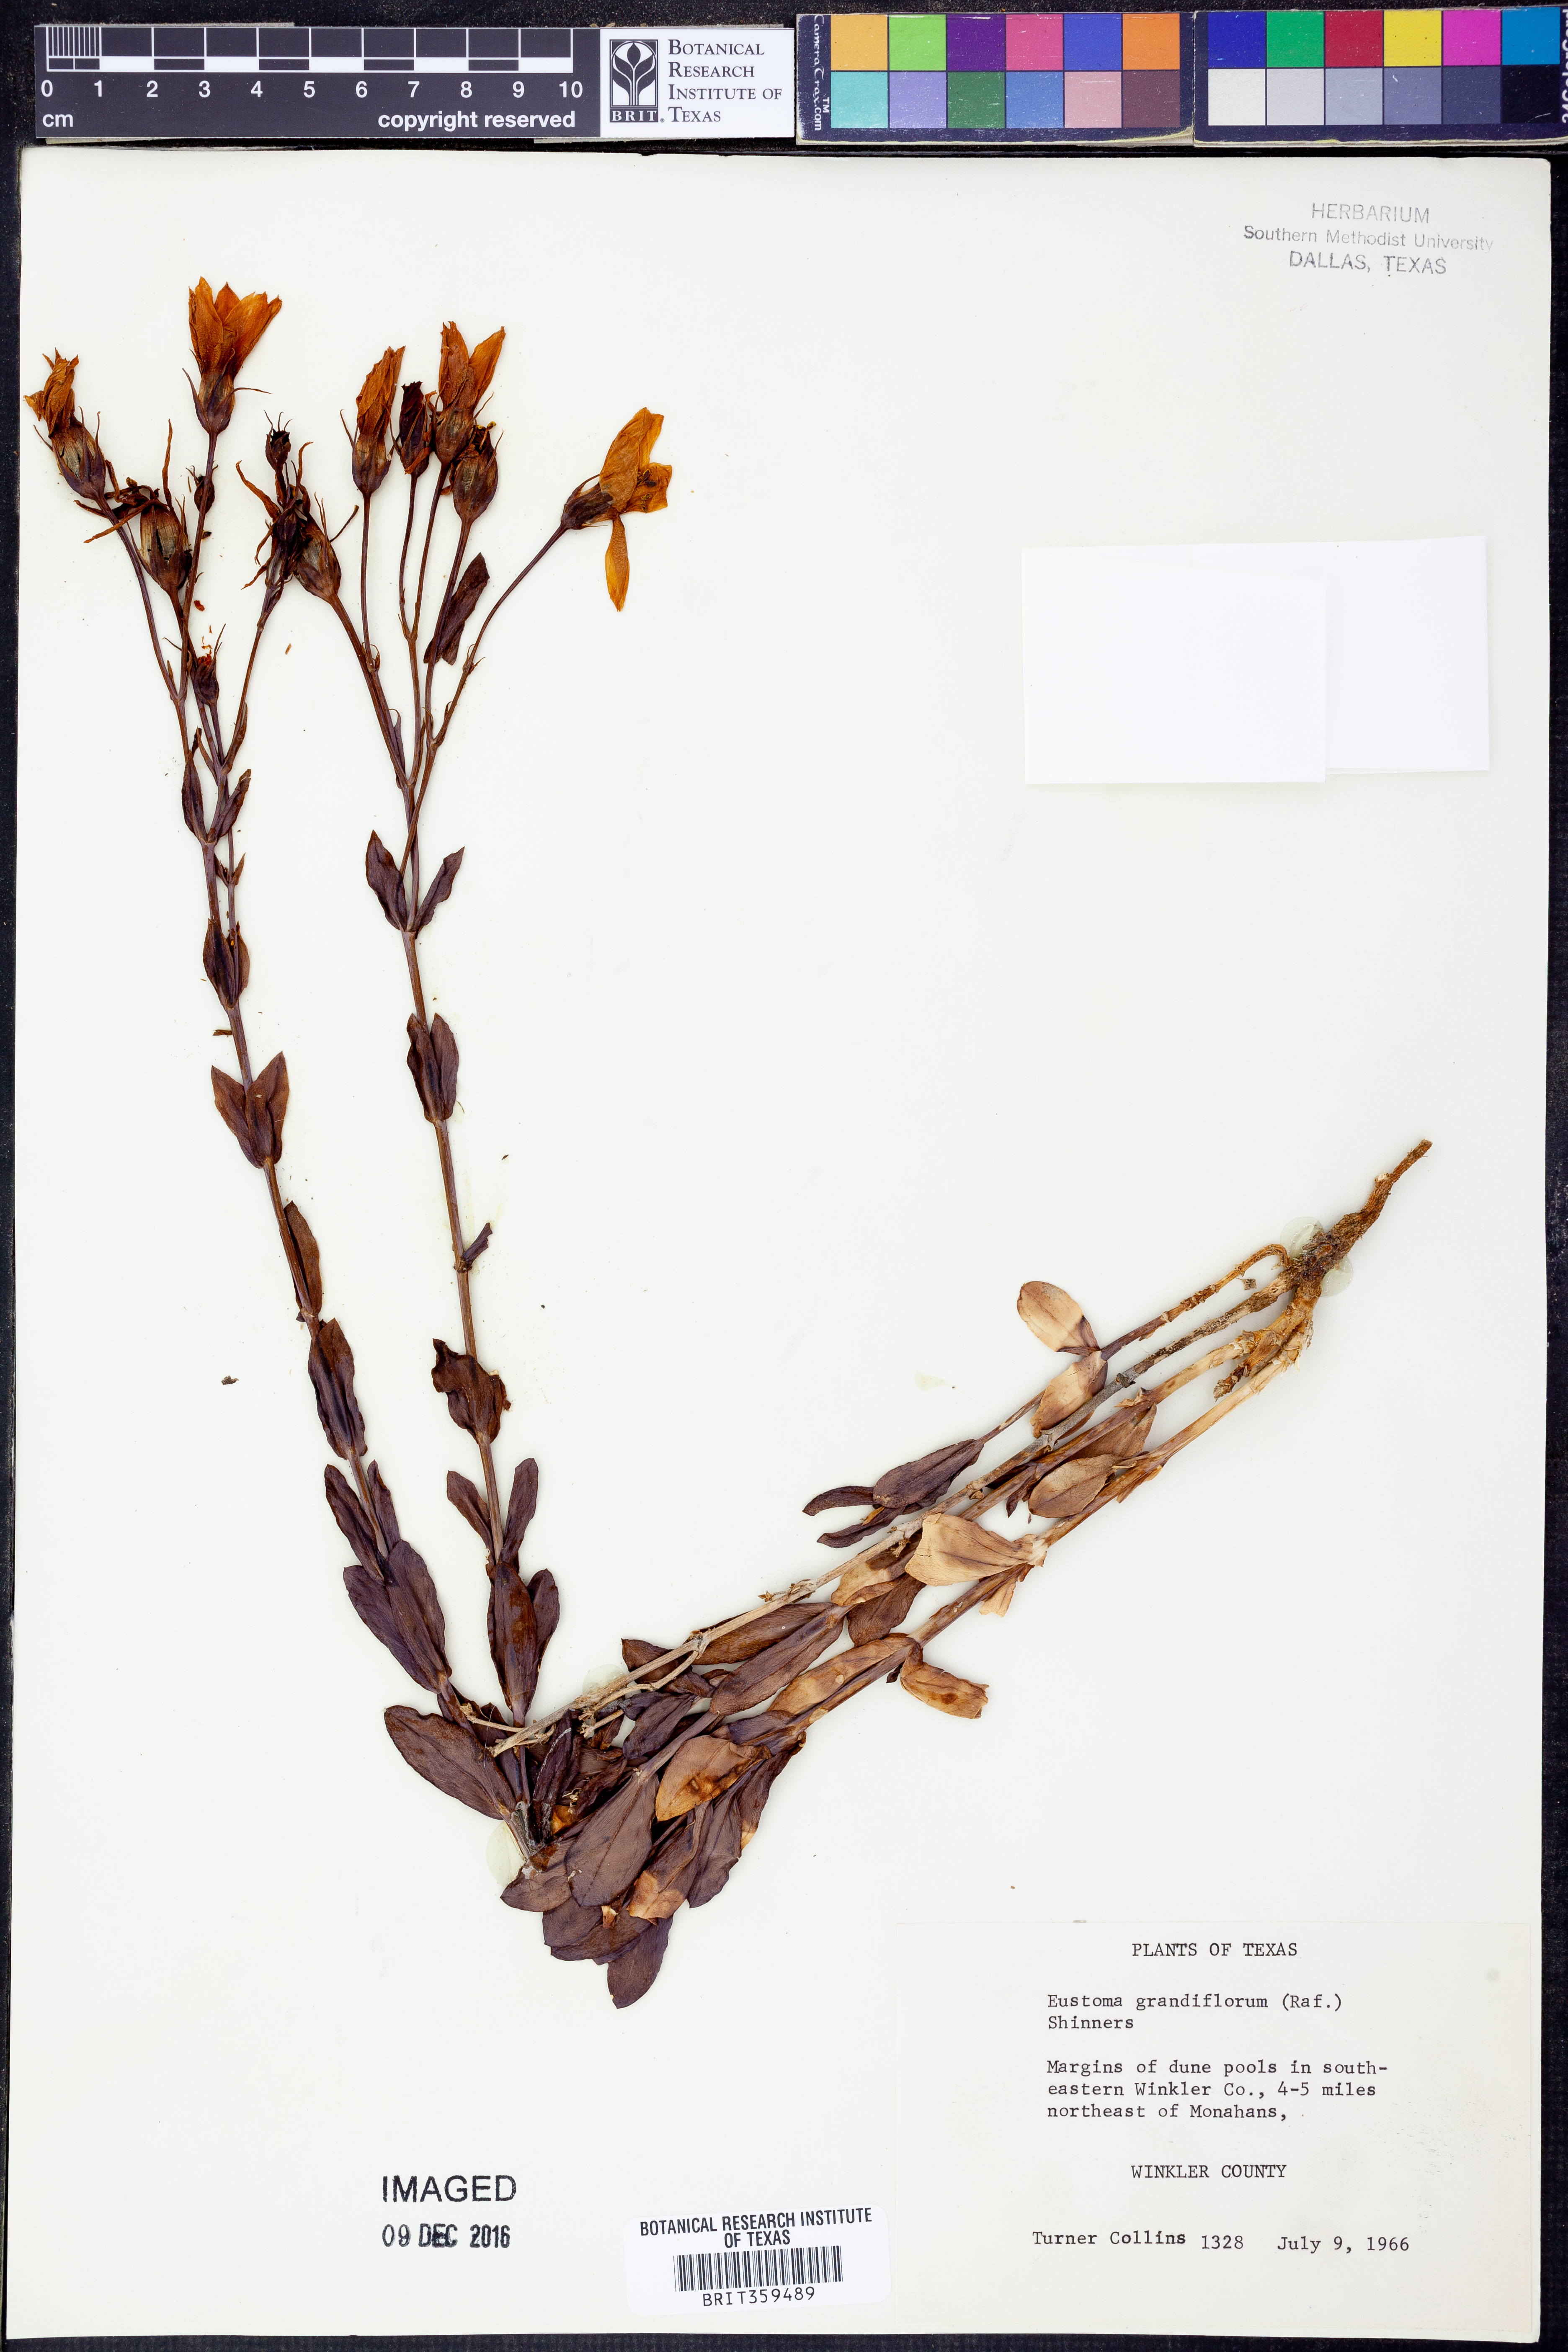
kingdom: Plantae
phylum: Tracheophyta
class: Magnoliopsida
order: Gentianales
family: Gentianaceae
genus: Eustoma
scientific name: Eustoma russellianum
